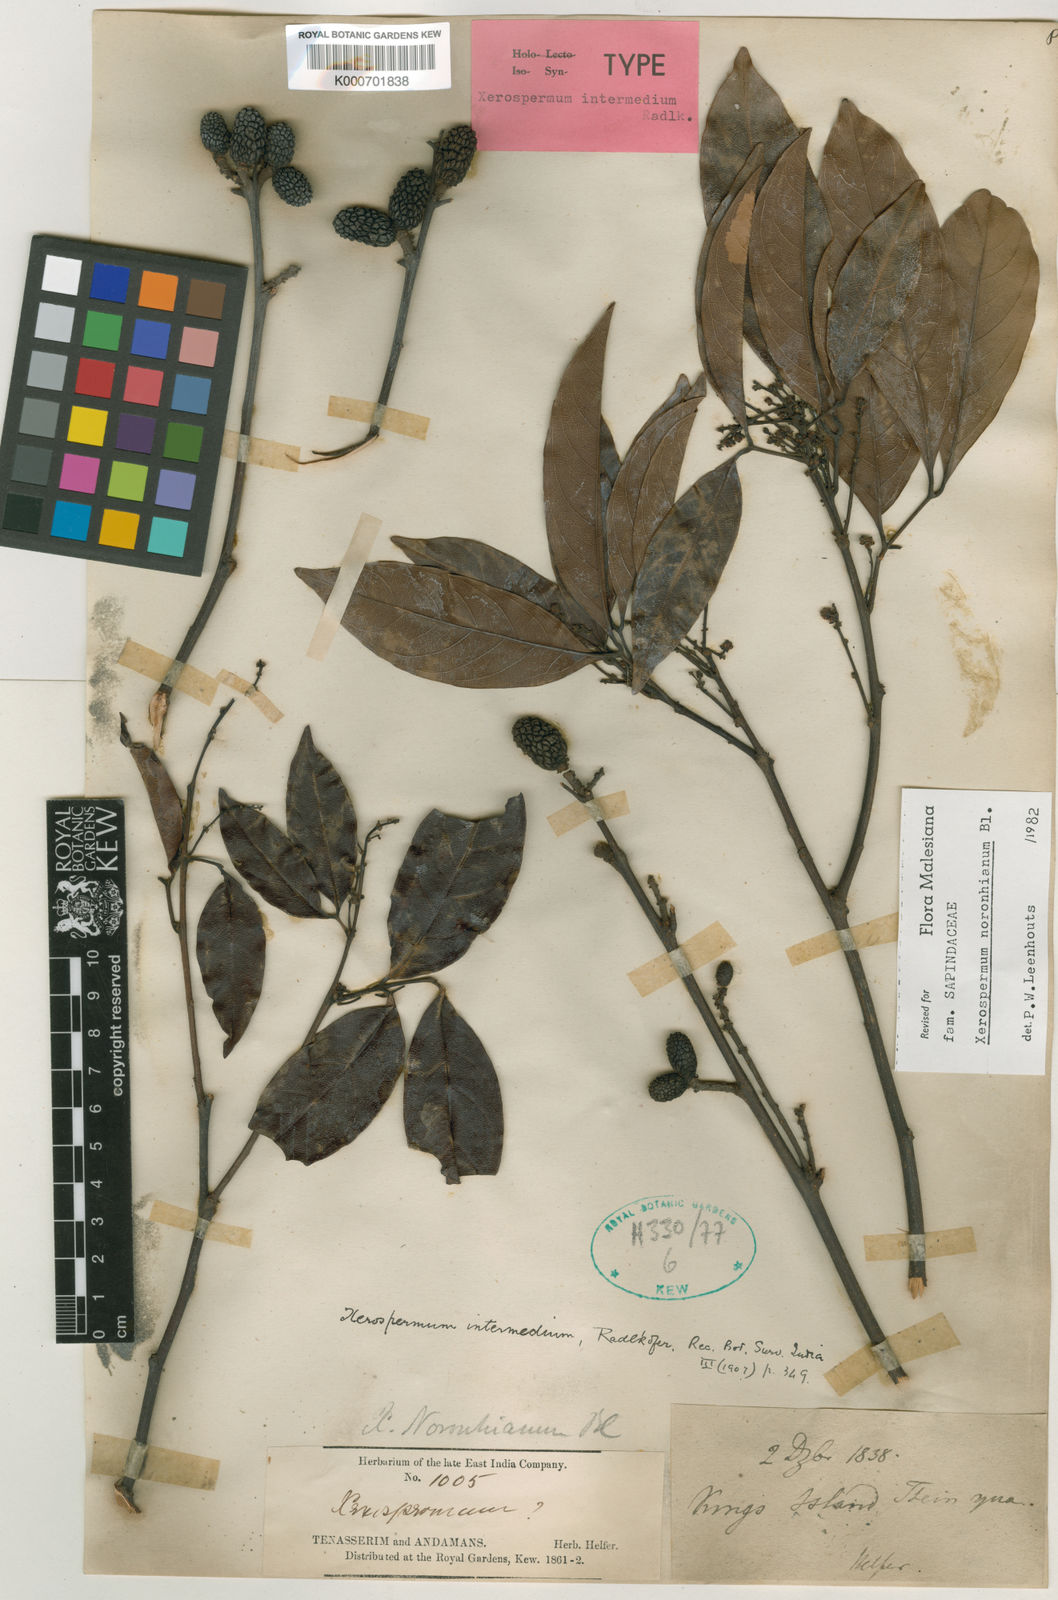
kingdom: Plantae
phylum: Tracheophyta
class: Magnoliopsida
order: Sapindales
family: Sapindaceae
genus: Xerospermum
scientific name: Xerospermum noronhianum
